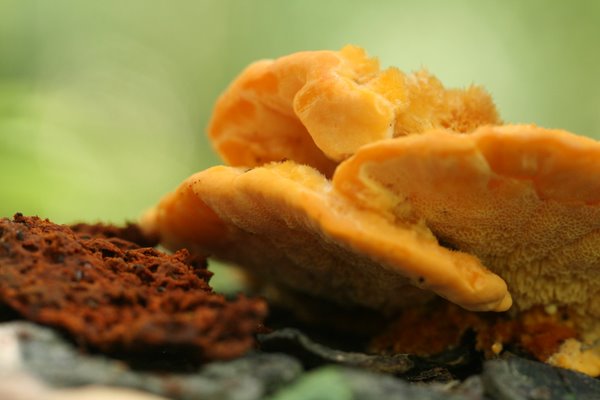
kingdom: Fungi
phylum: Basidiomycota
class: Agaricomycetes
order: Polyporales
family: Pycnoporellaceae
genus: Pycnoporellus
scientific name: Pycnoporellus fulgens
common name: flammeporesvamp
